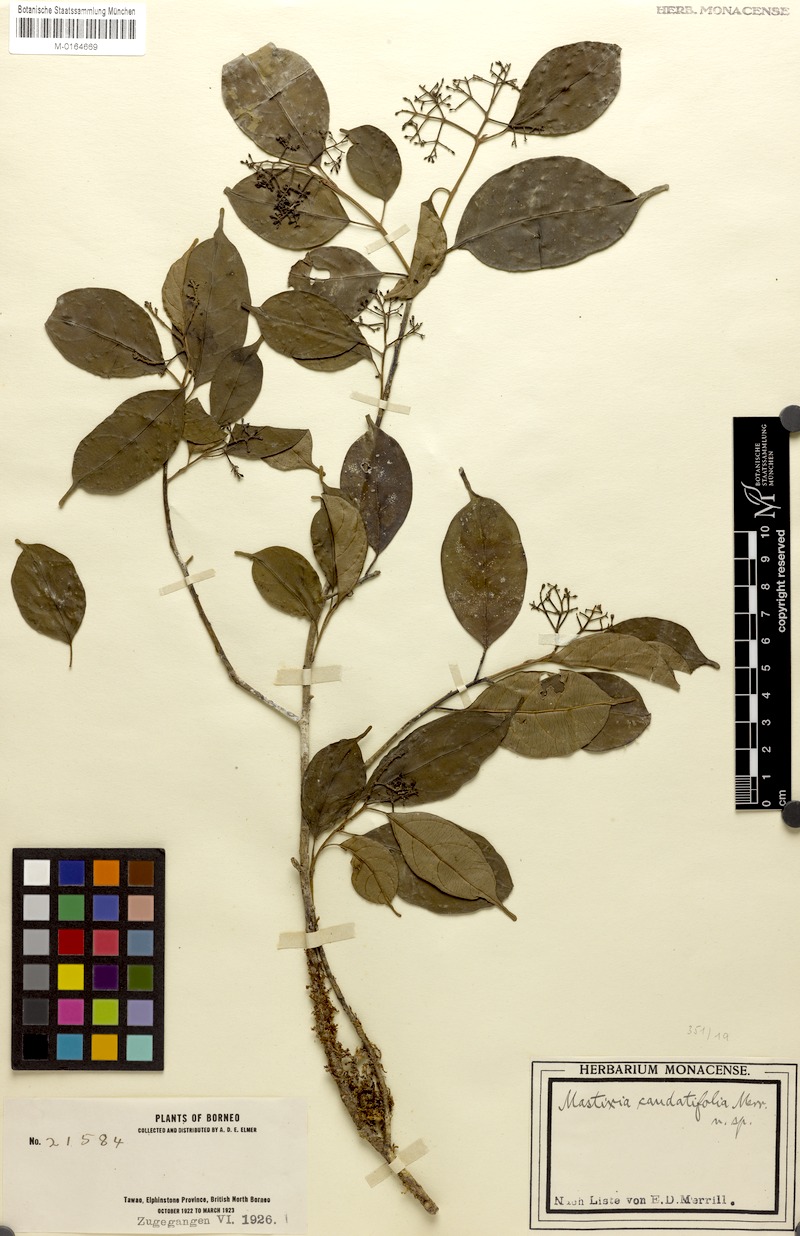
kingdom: Plantae
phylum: Tracheophyta
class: Magnoliopsida
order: Cornales
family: Nyssaceae
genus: Mastixia
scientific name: Mastixia rostrata
